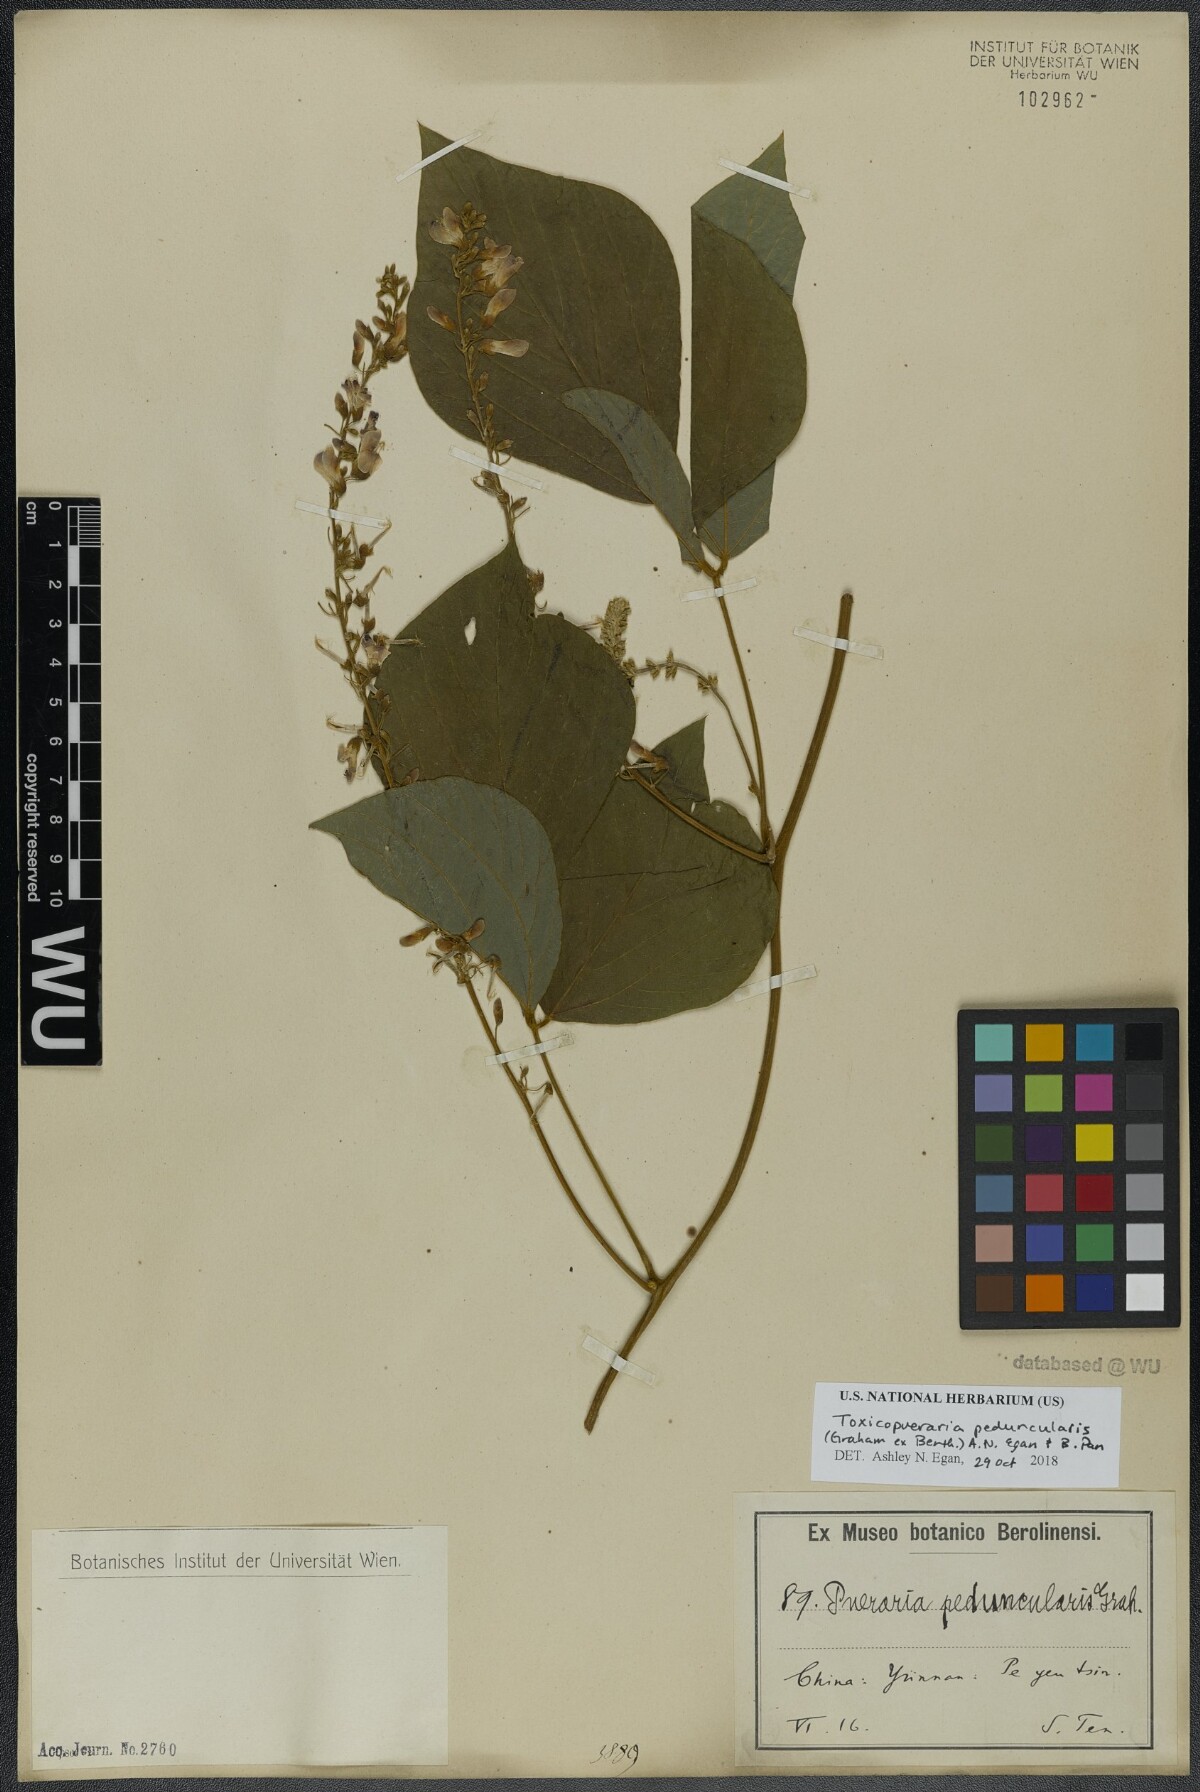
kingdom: Plantae
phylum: Tracheophyta
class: Magnoliopsida
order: Fabales
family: Fabaceae
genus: Toxicopueraria
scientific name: Toxicopueraria peduncularis
